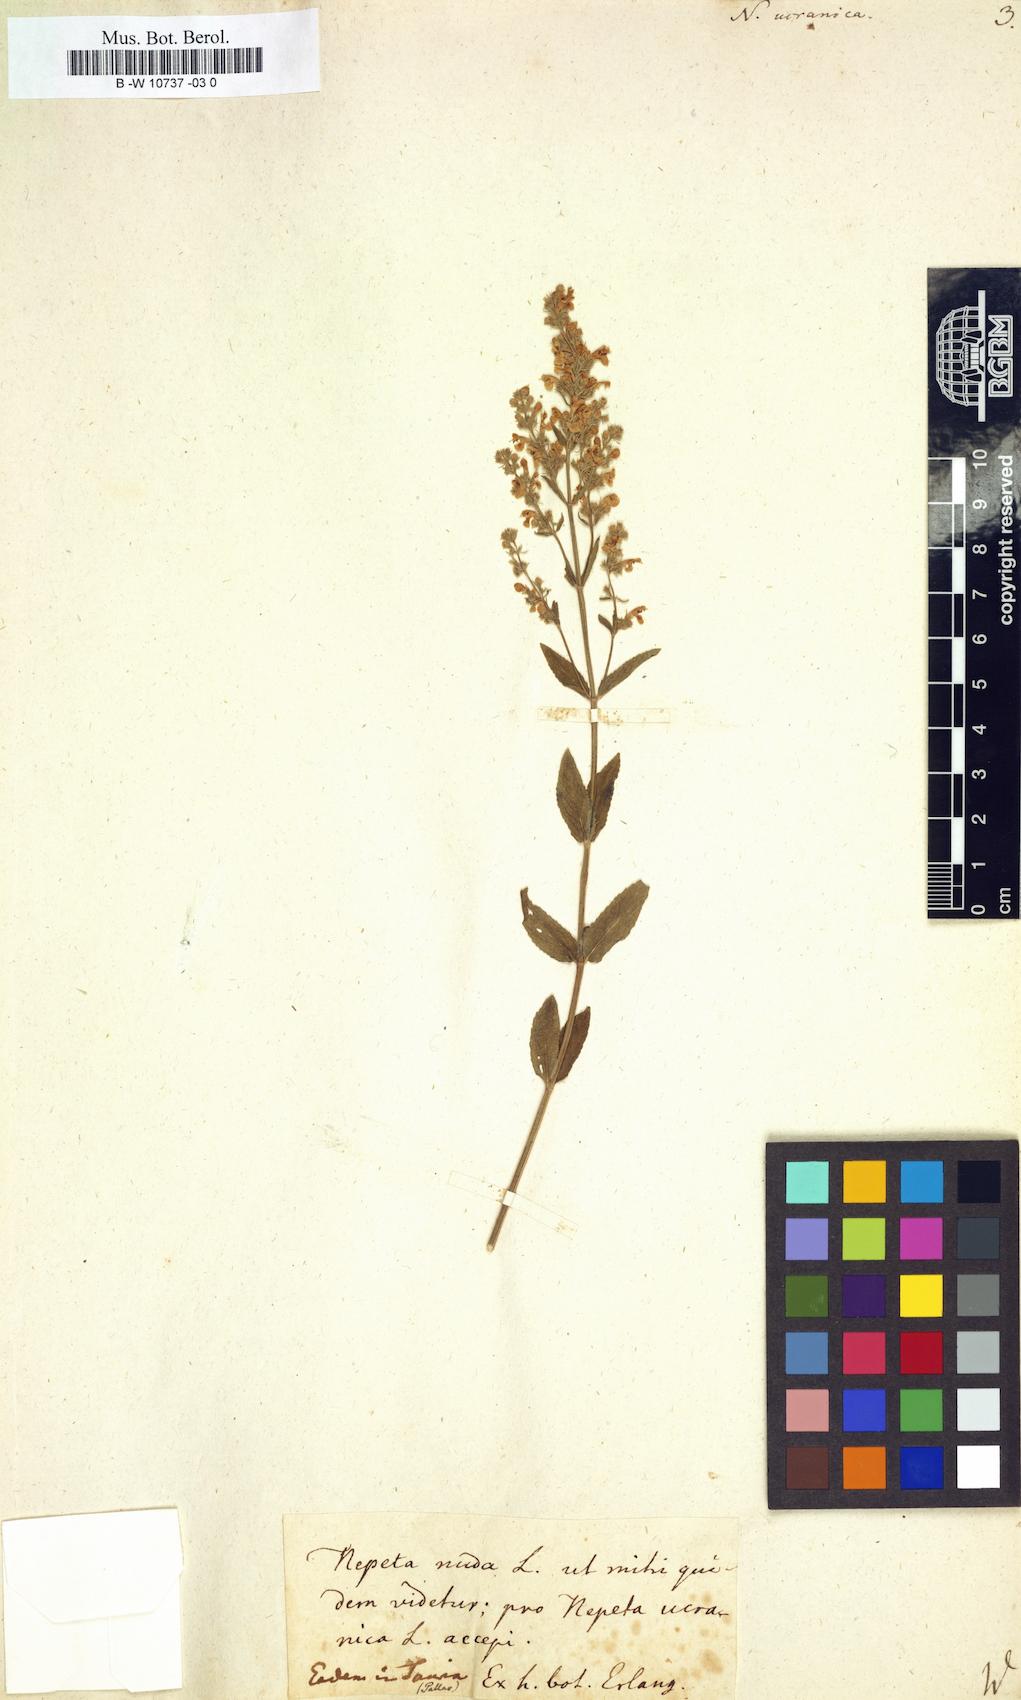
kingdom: Plantae
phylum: Tracheophyta
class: Magnoliopsida
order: Lamiales
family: Lamiaceae
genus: Nepeta
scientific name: Nepeta ucranica
